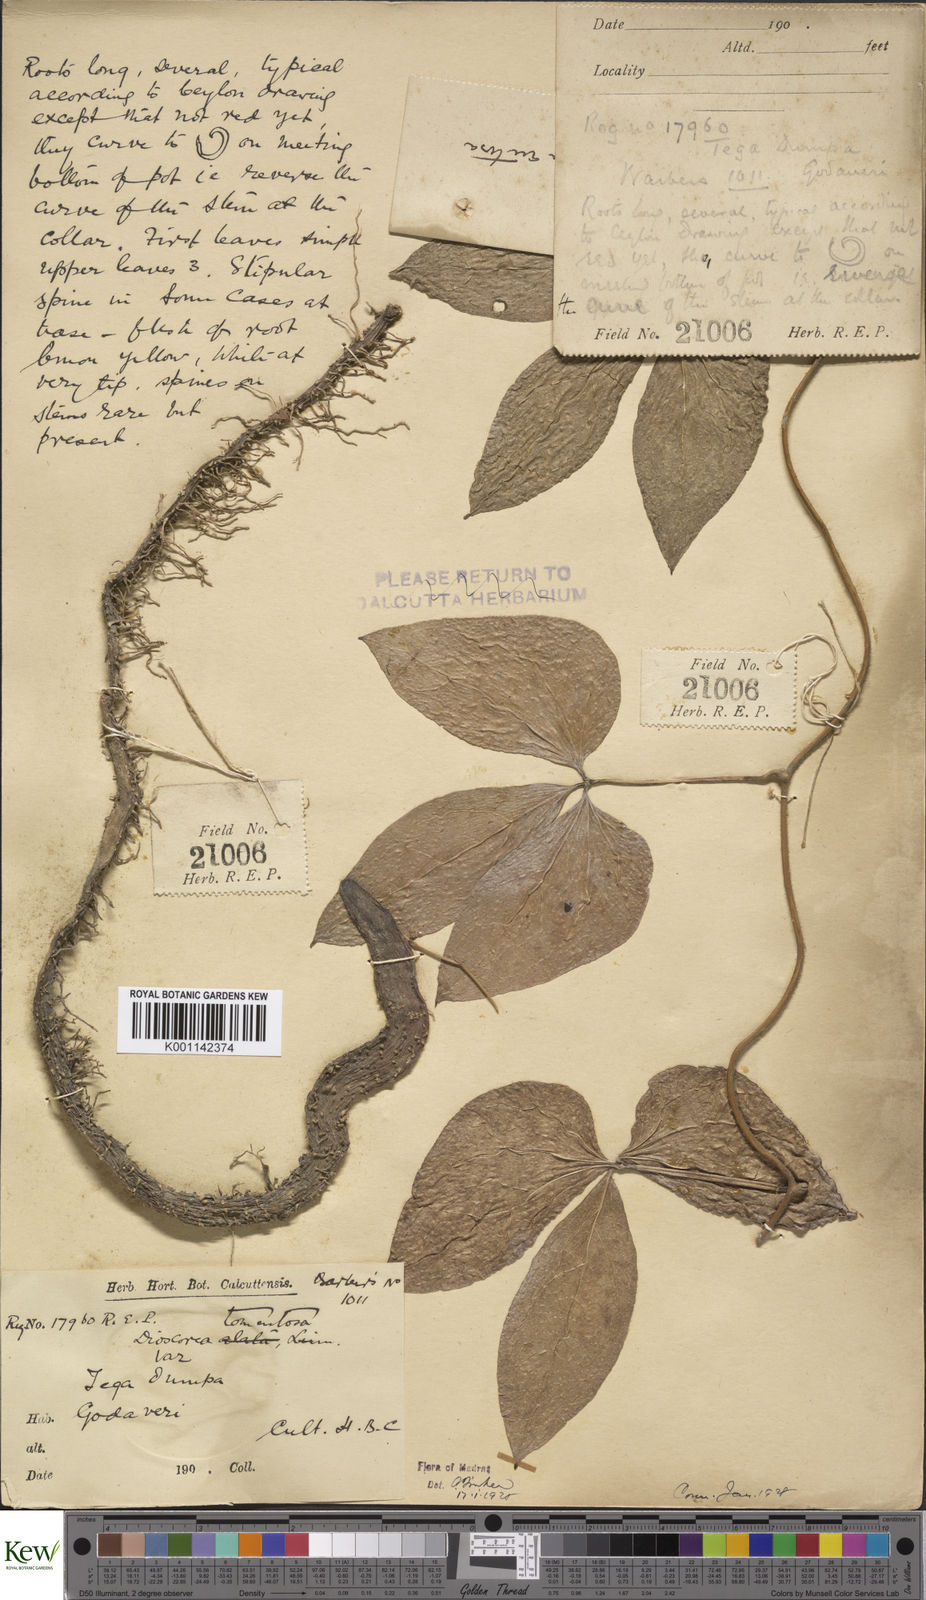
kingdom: Plantae
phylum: Tracheophyta
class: Liliopsida
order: Dioscoreales
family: Dioscoreaceae
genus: Dioscorea
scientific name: Dioscorea
